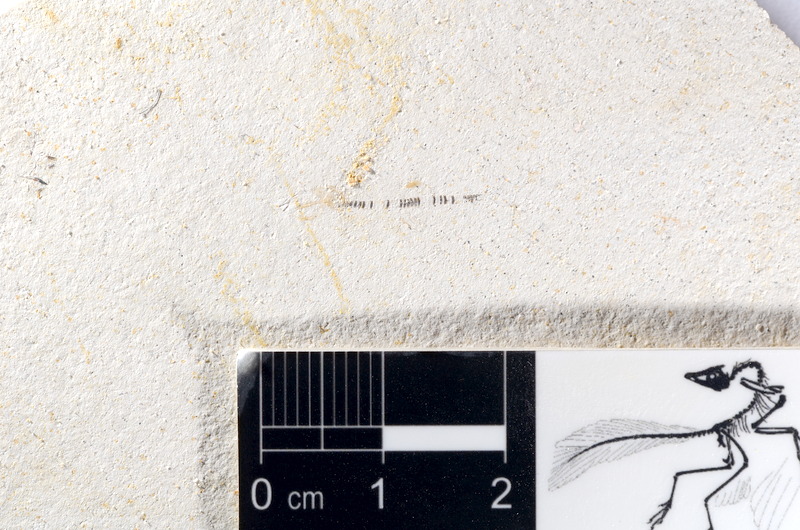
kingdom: Animalia
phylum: Chordata
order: Salmoniformes
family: Orthogonikleithridae
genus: Orthogonikleithrus
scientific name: Orthogonikleithrus hoelli
